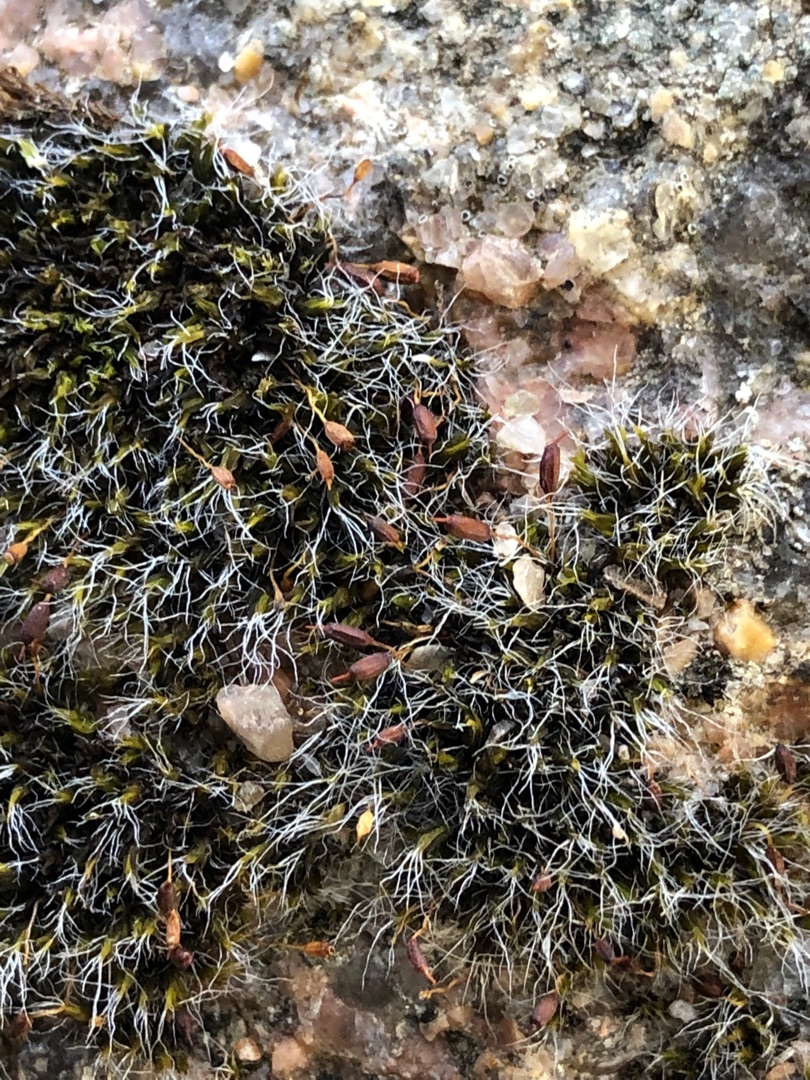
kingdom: Plantae
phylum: Bryophyta
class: Bryopsida
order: Grimmiales
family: Grimmiaceae
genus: Grimmia
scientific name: Grimmia pulvinata
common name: Pude-gråmos
